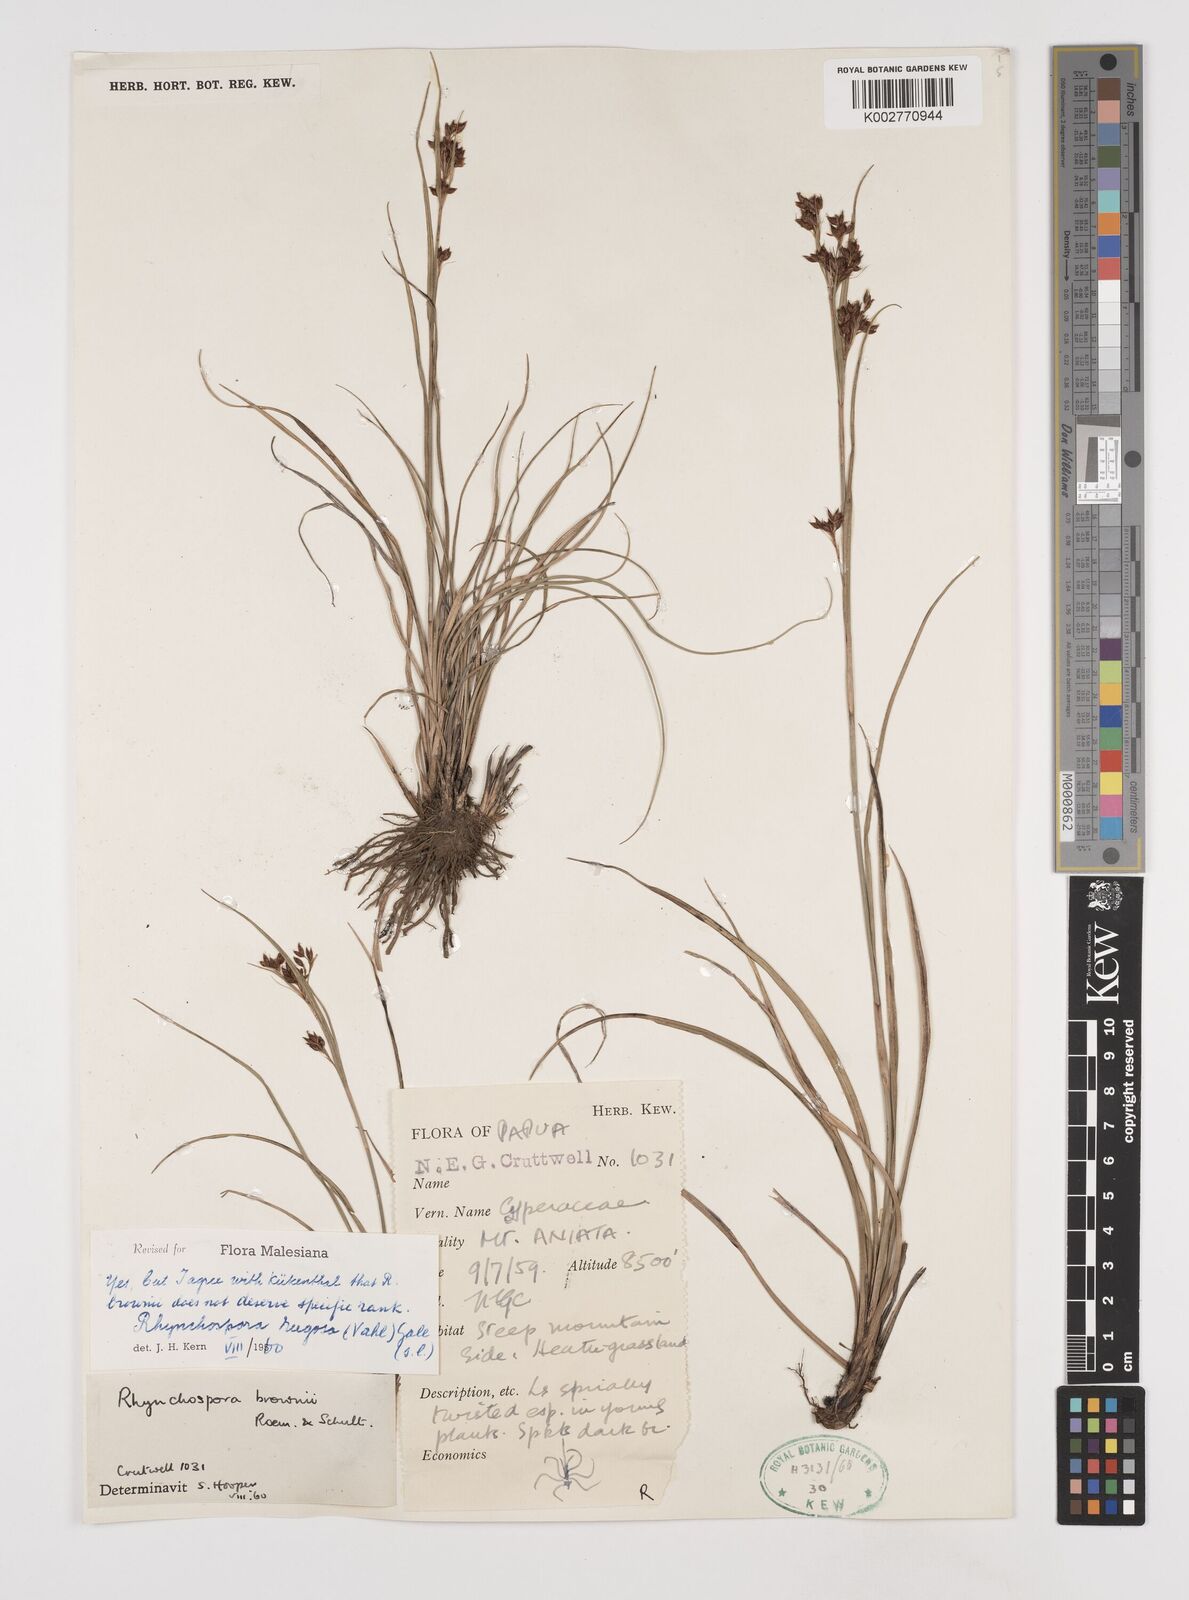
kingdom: Plantae
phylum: Tracheophyta
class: Liliopsida
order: Poales
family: Cyperaceae
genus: Rhynchospora
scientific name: Rhynchospora rugosa
